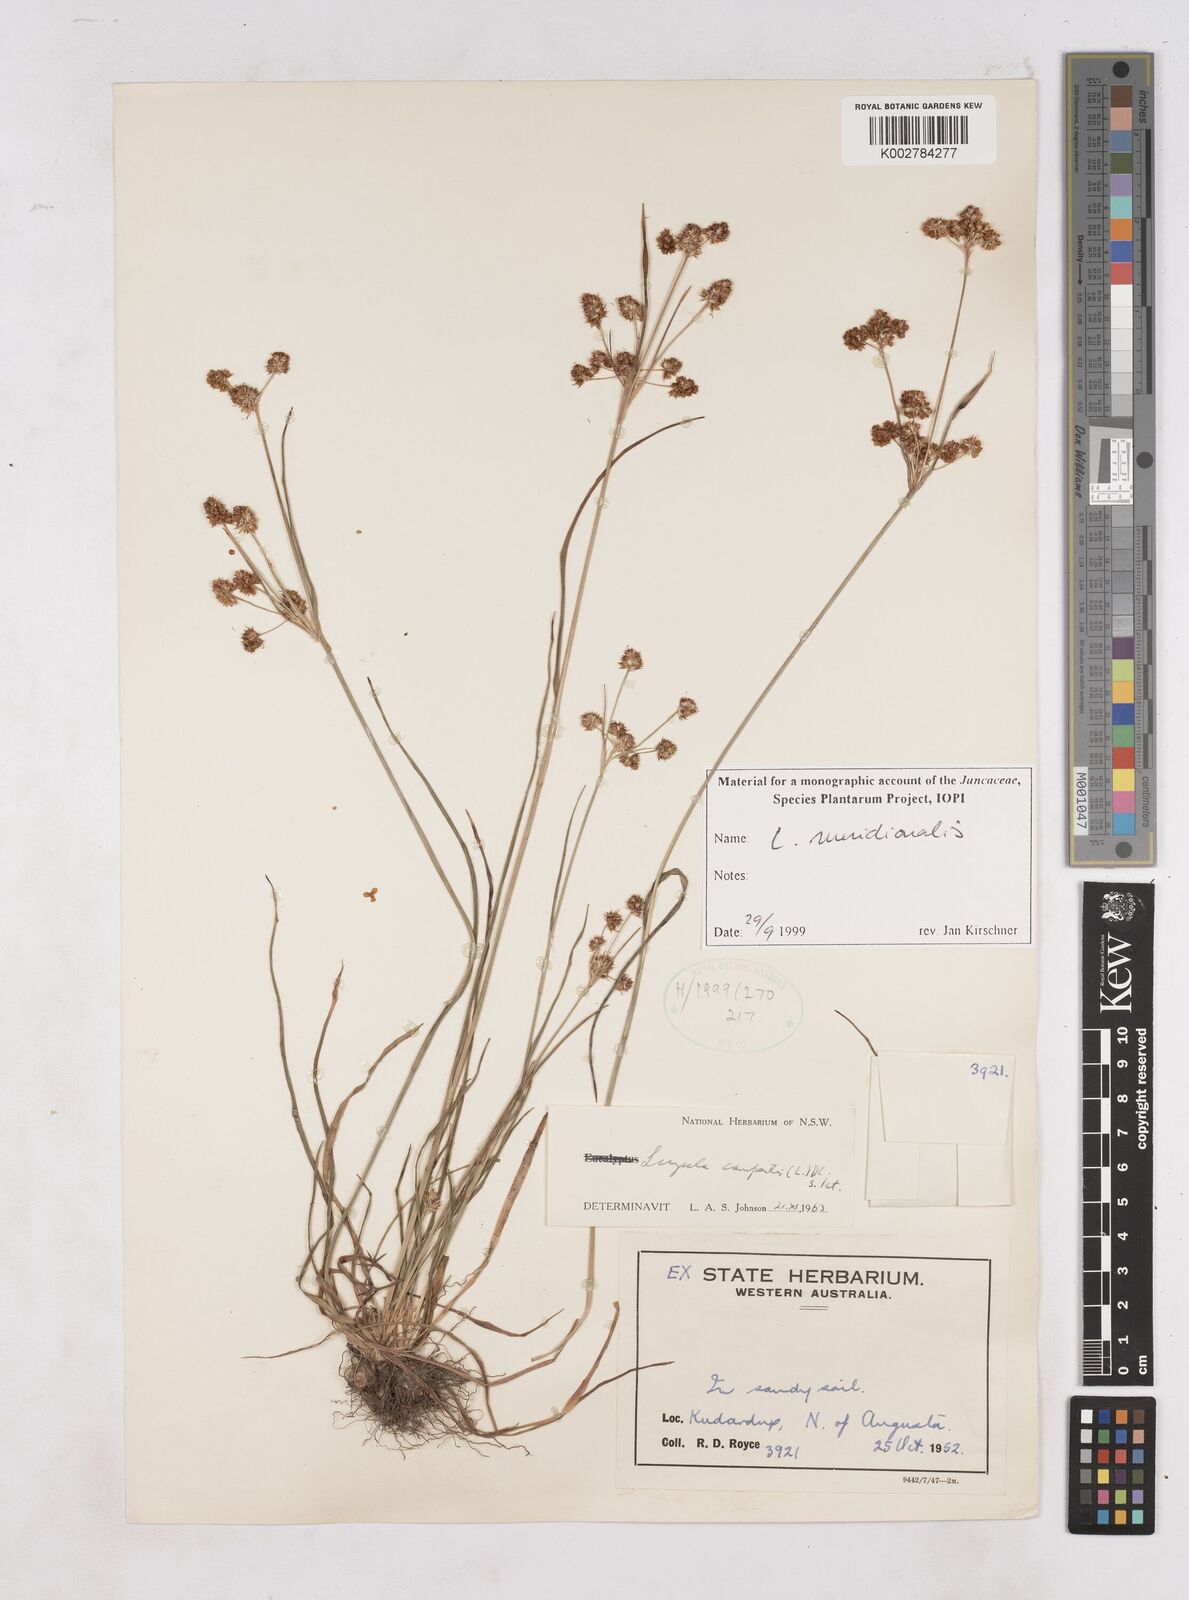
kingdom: Plantae
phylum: Tracheophyta
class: Liliopsida
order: Poales
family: Juncaceae
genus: Luzula
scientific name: Luzula meridionalis
